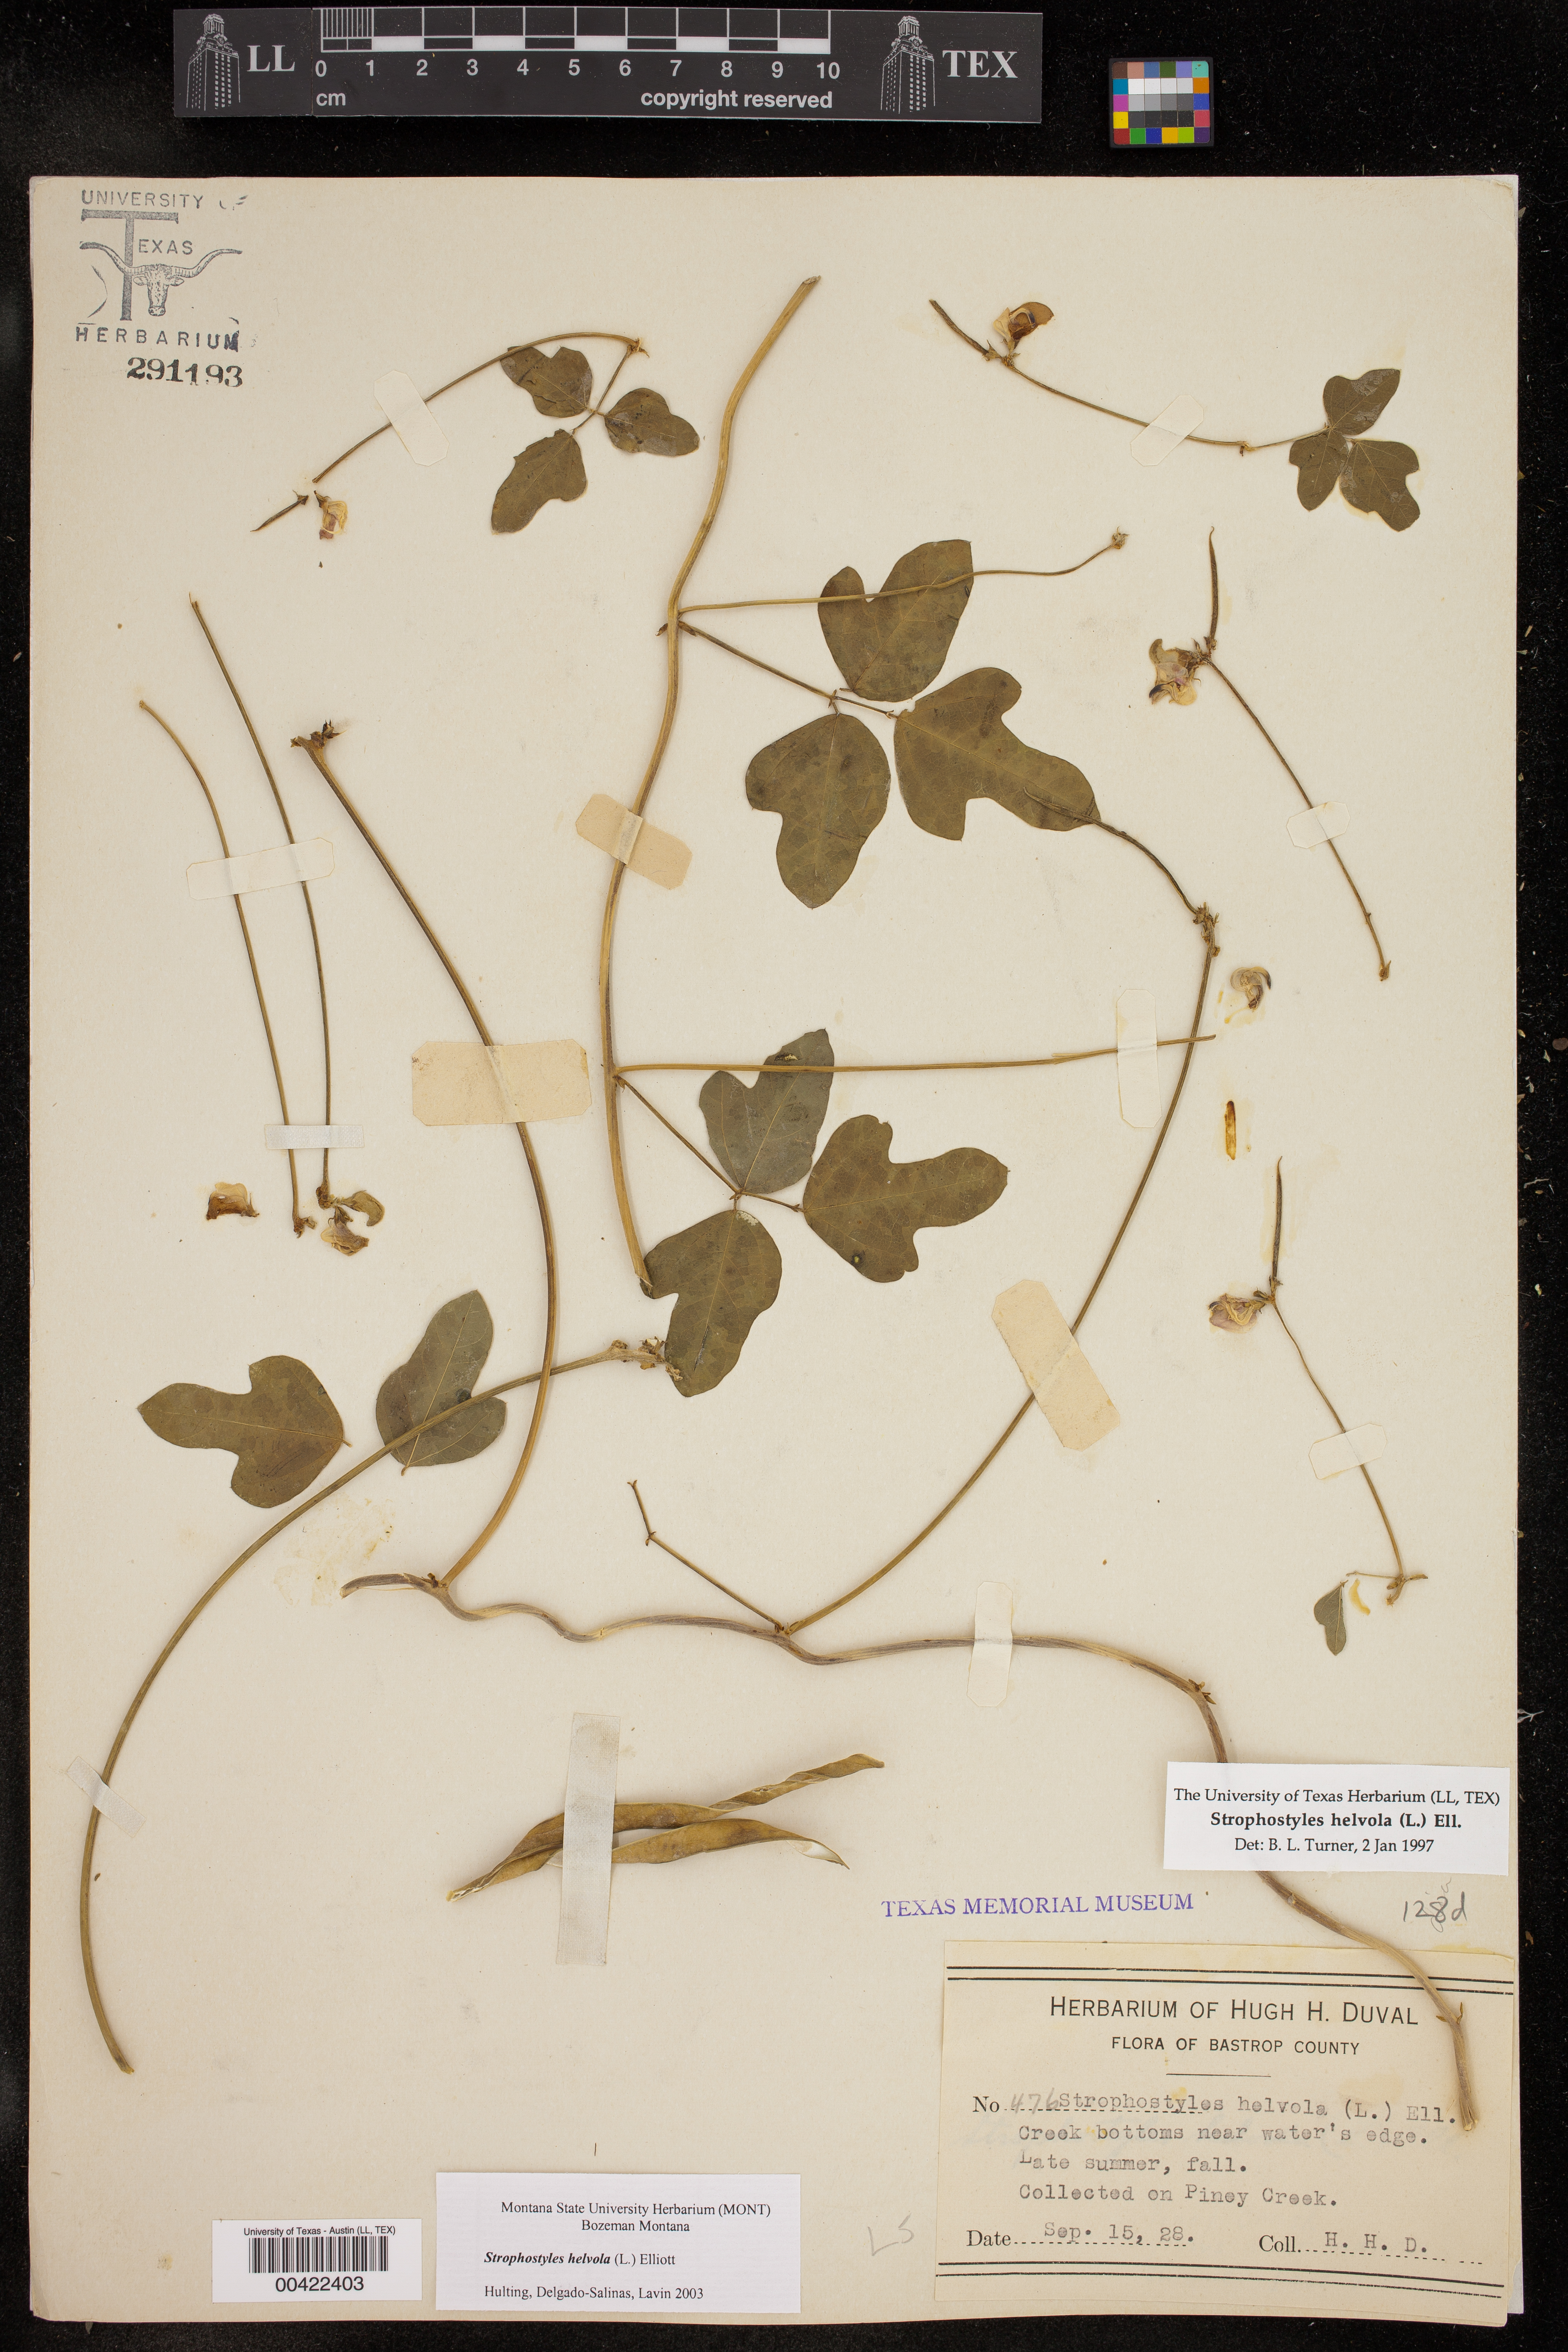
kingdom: Plantae
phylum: Tracheophyta
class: Magnoliopsida
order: Fabales
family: Fabaceae
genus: Strophostyles
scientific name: Strophostyles helvola
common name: Trailing wild bean
